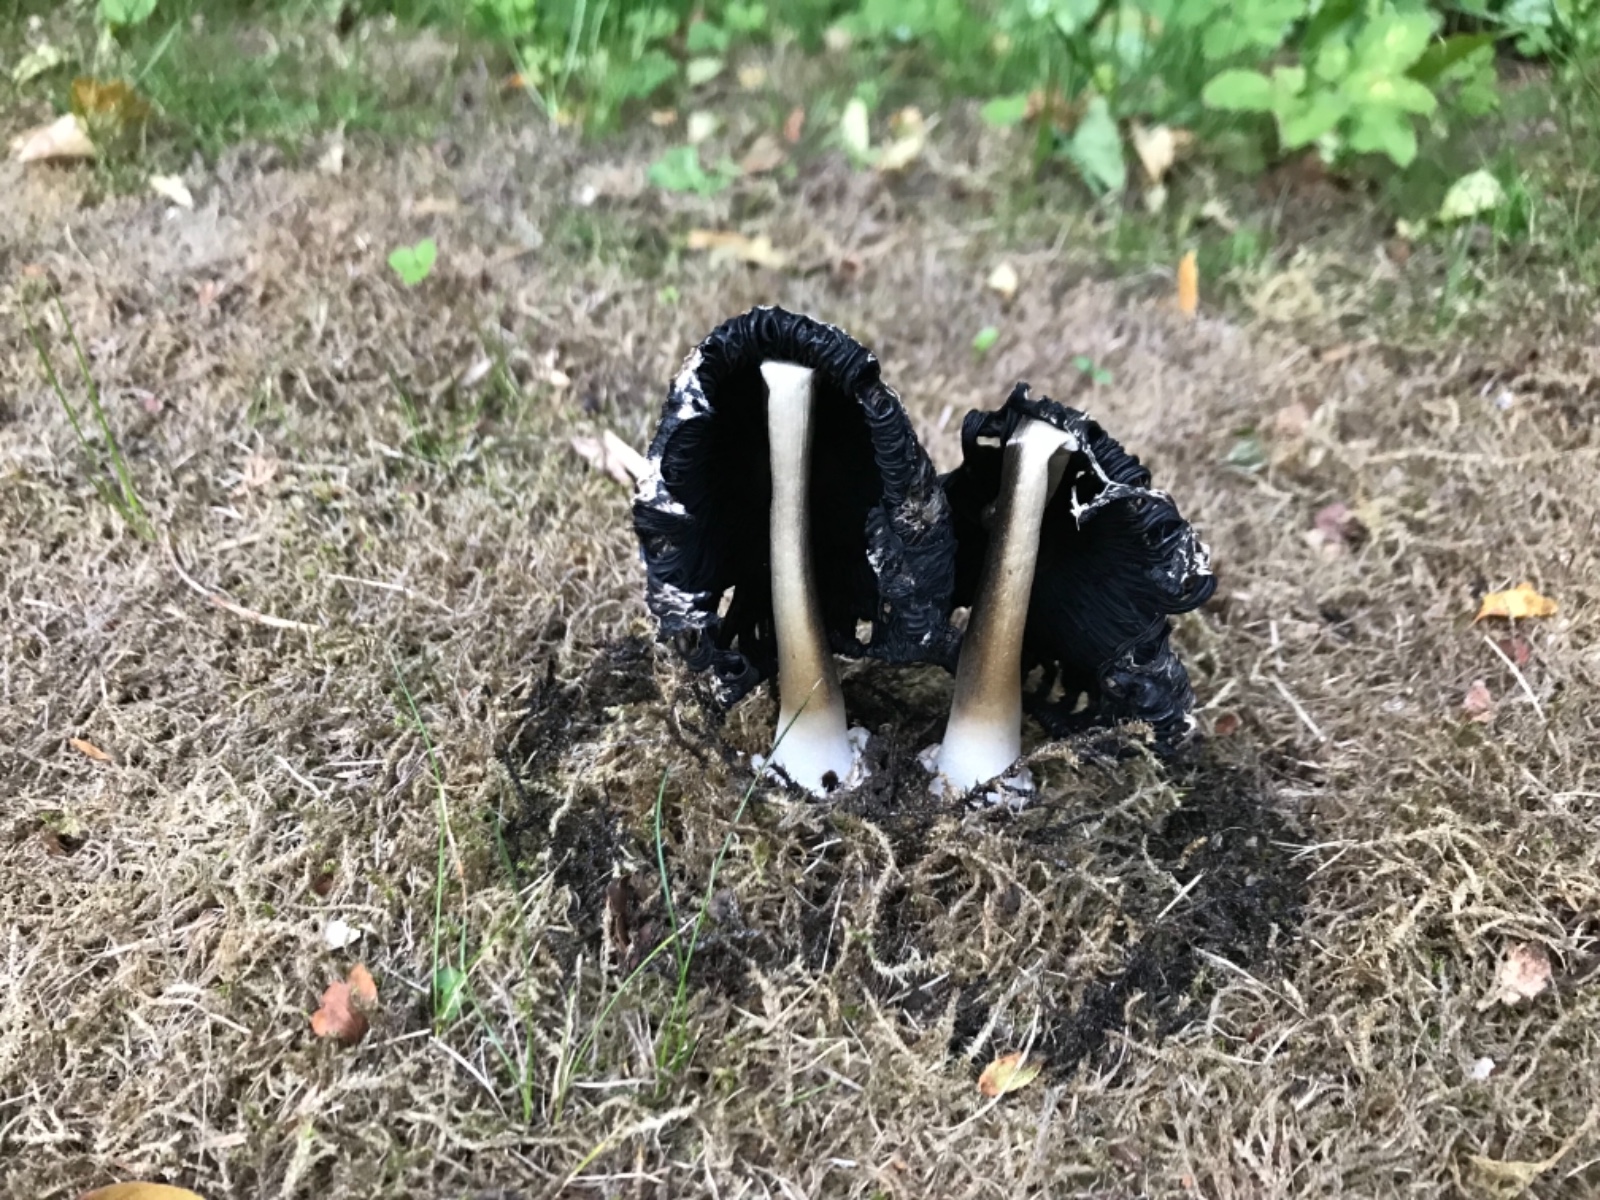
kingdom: Fungi
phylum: Basidiomycota
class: Agaricomycetes
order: Agaricales
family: Agaricaceae
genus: Coprinus
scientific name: Coprinus comatus
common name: stor parykhat
